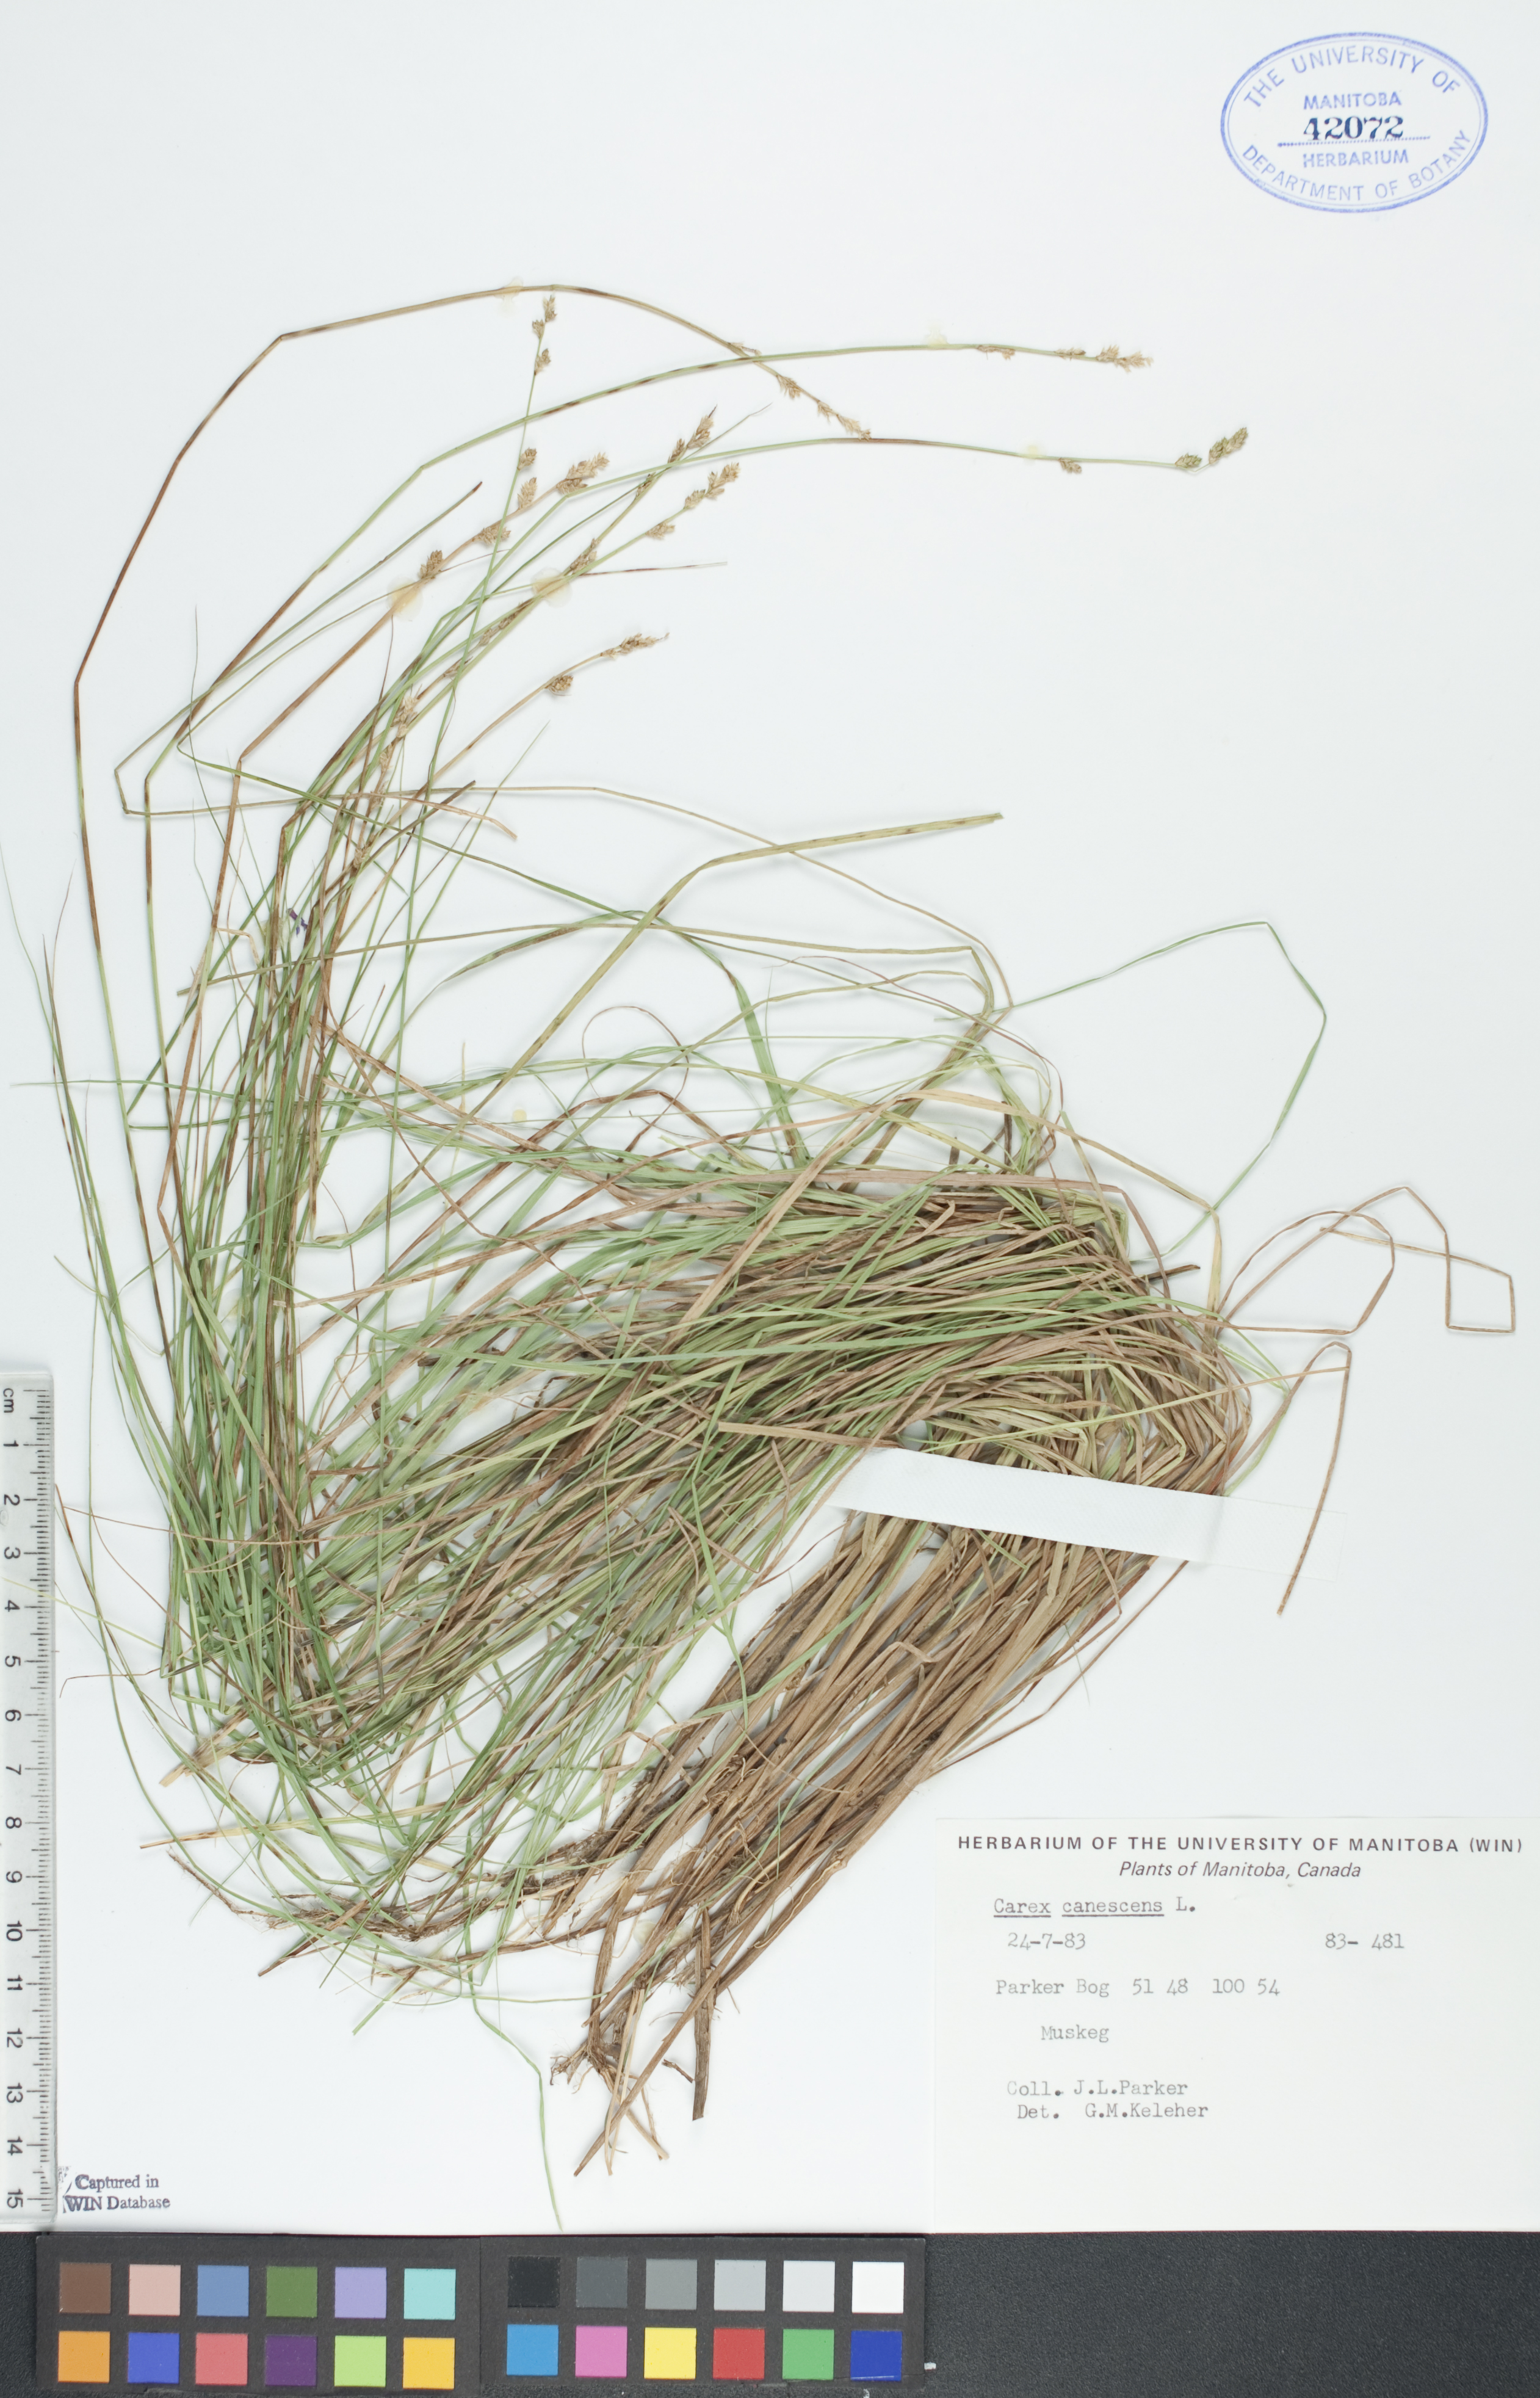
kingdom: Plantae
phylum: Tracheophyta
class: Liliopsida
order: Poales
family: Cyperaceae
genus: Carex
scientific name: Carex canescens
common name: White sedge
